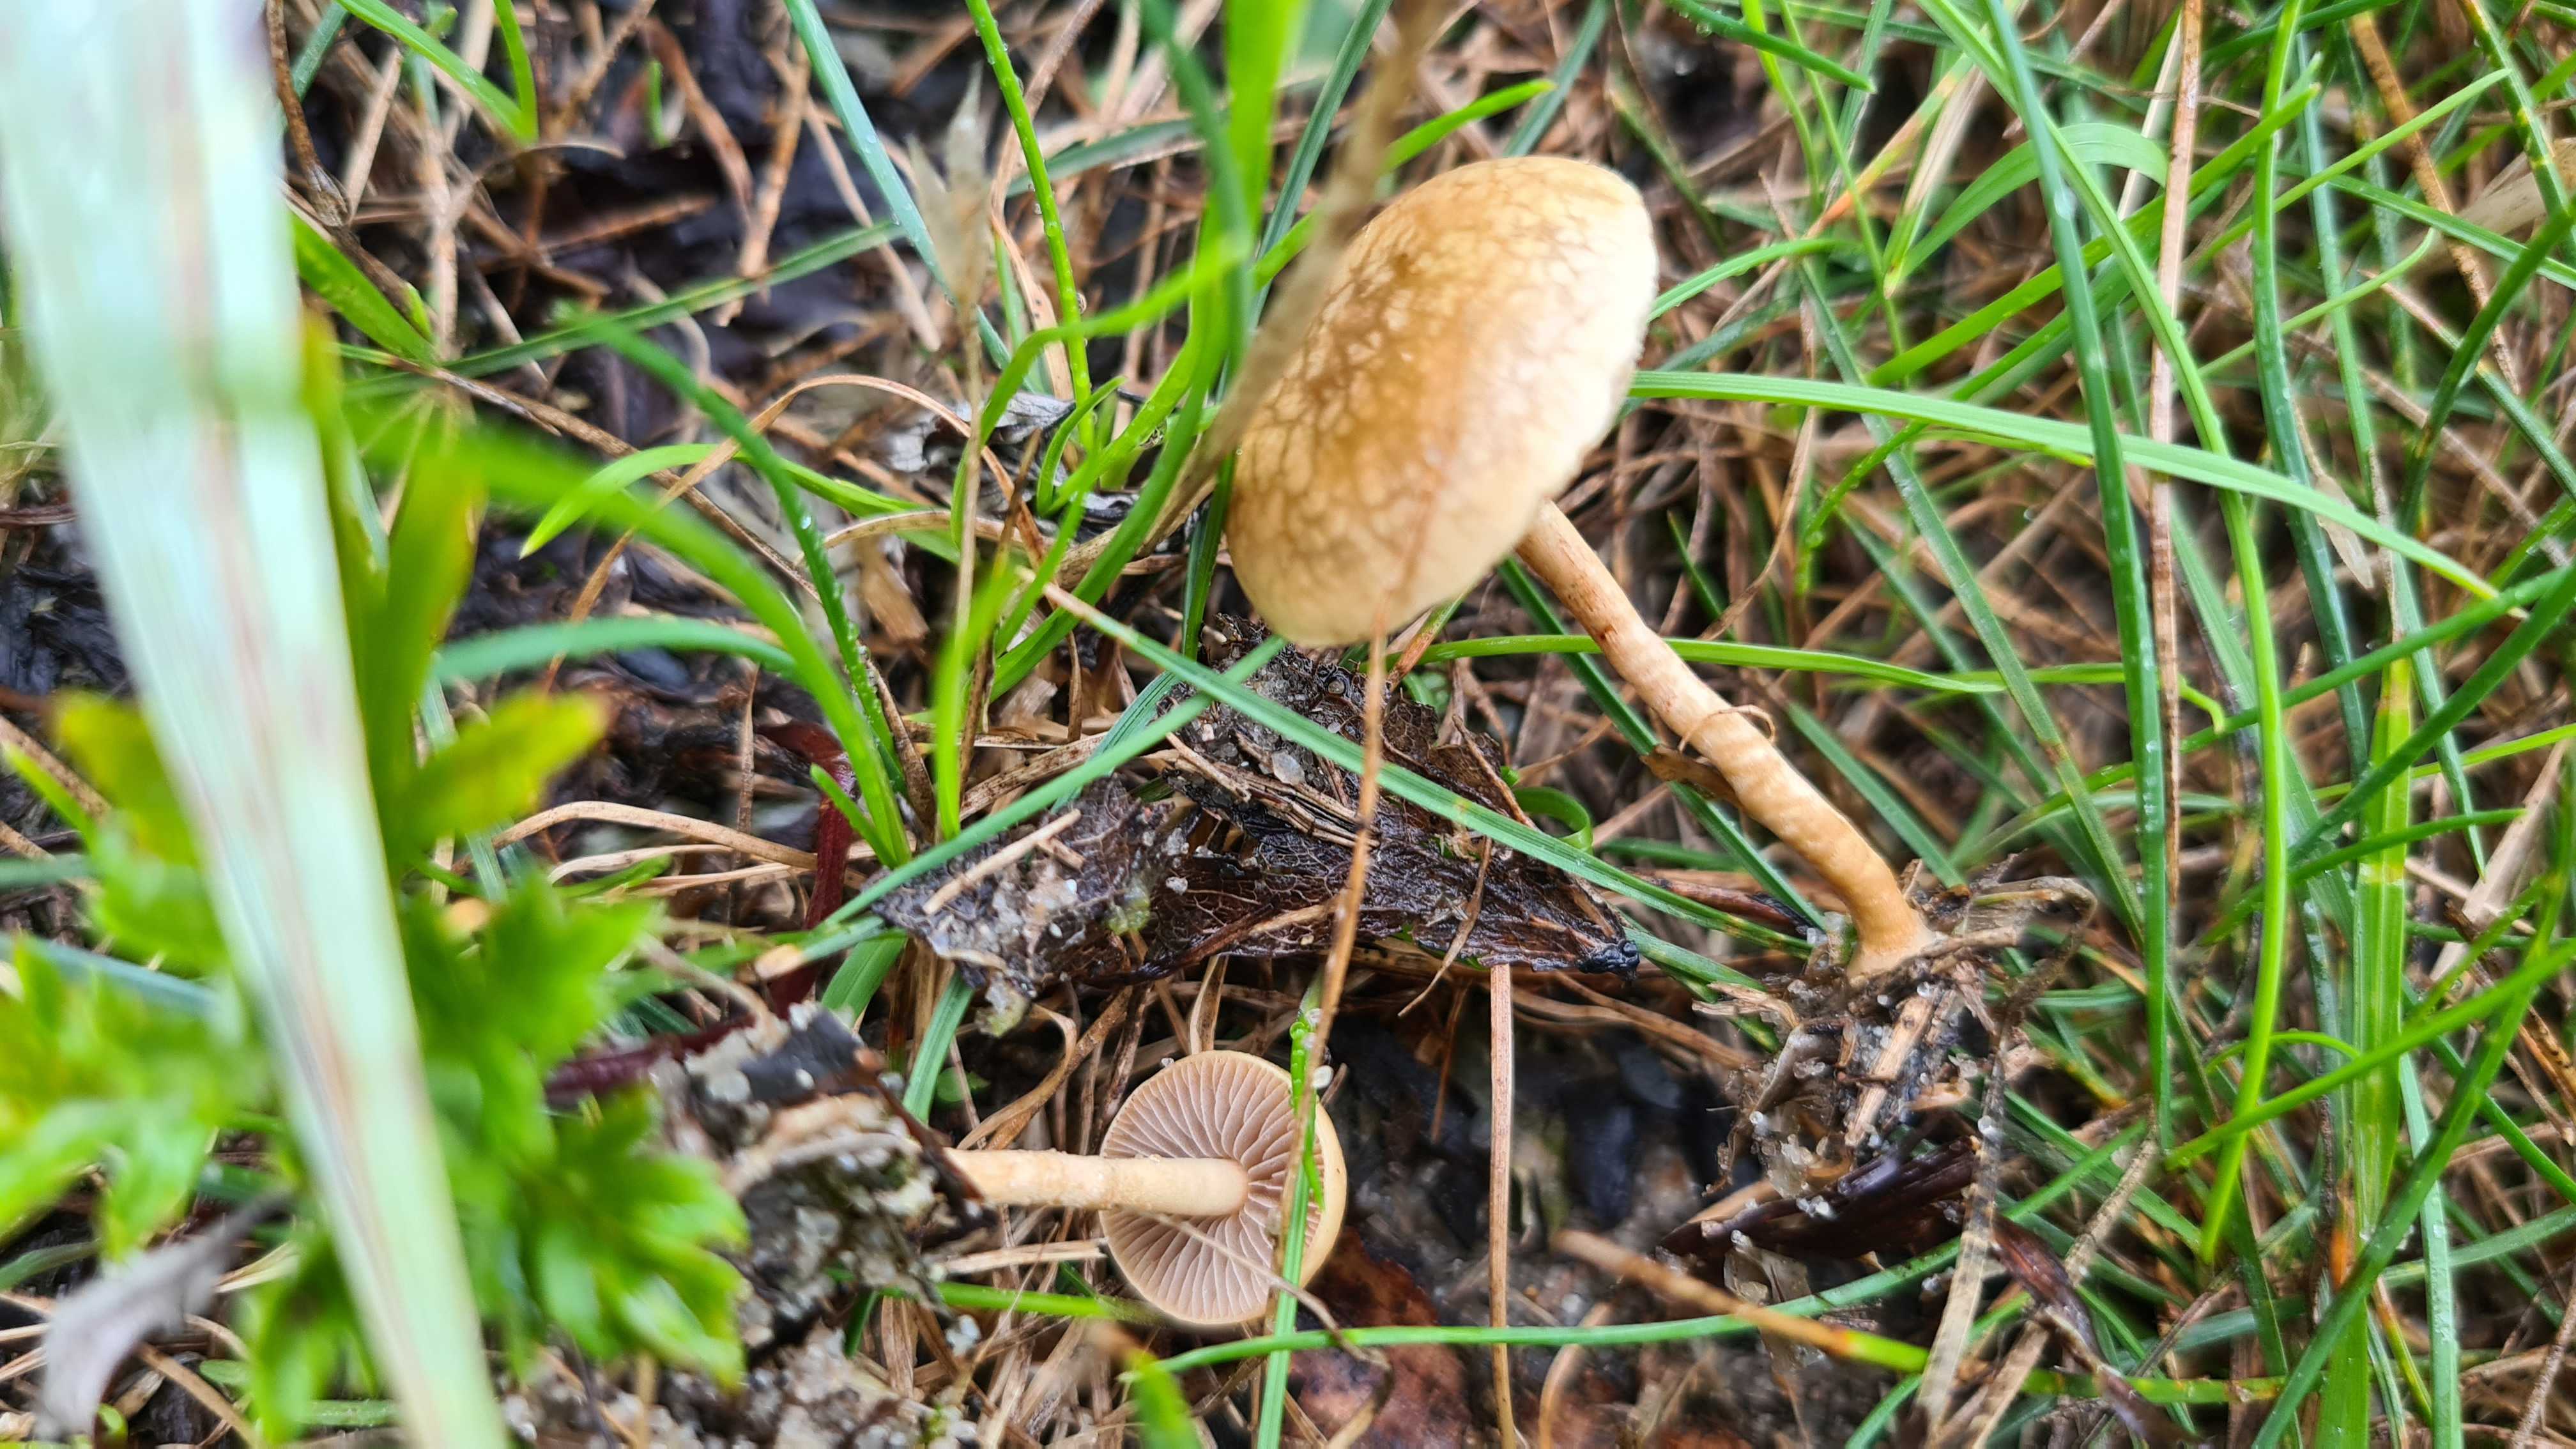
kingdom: Fungi
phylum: Basidiomycota
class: Agaricomycetes
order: Agaricales
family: Strophariaceae
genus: Agrocybe
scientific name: Agrocybe pediades
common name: almindelig agerhat
